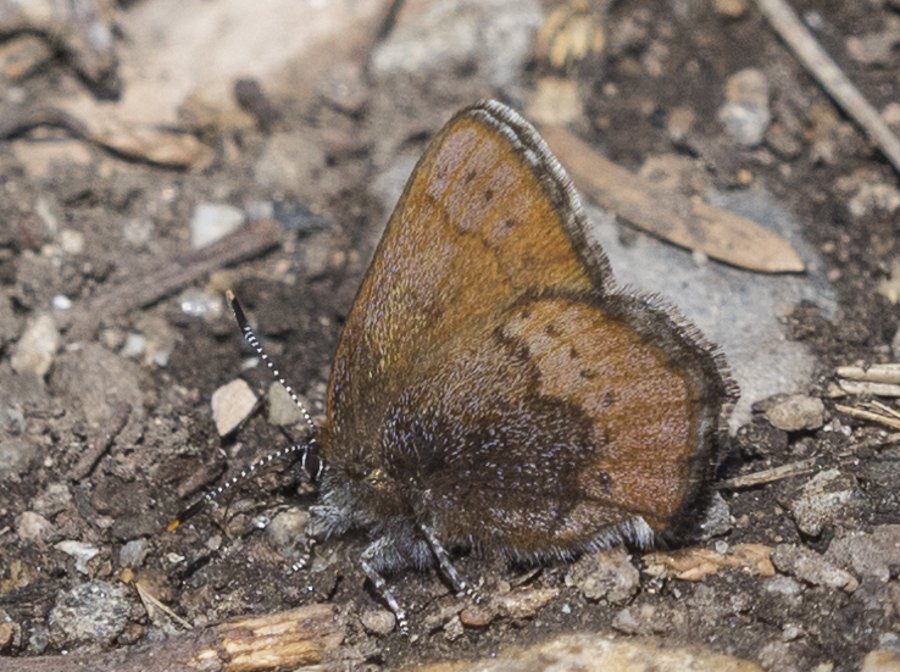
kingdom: Animalia
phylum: Arthropoda
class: Insecta
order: Lepidoptera
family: Lycaenidae
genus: Incisalia
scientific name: Incisalia irioides
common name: Brown Elfin
